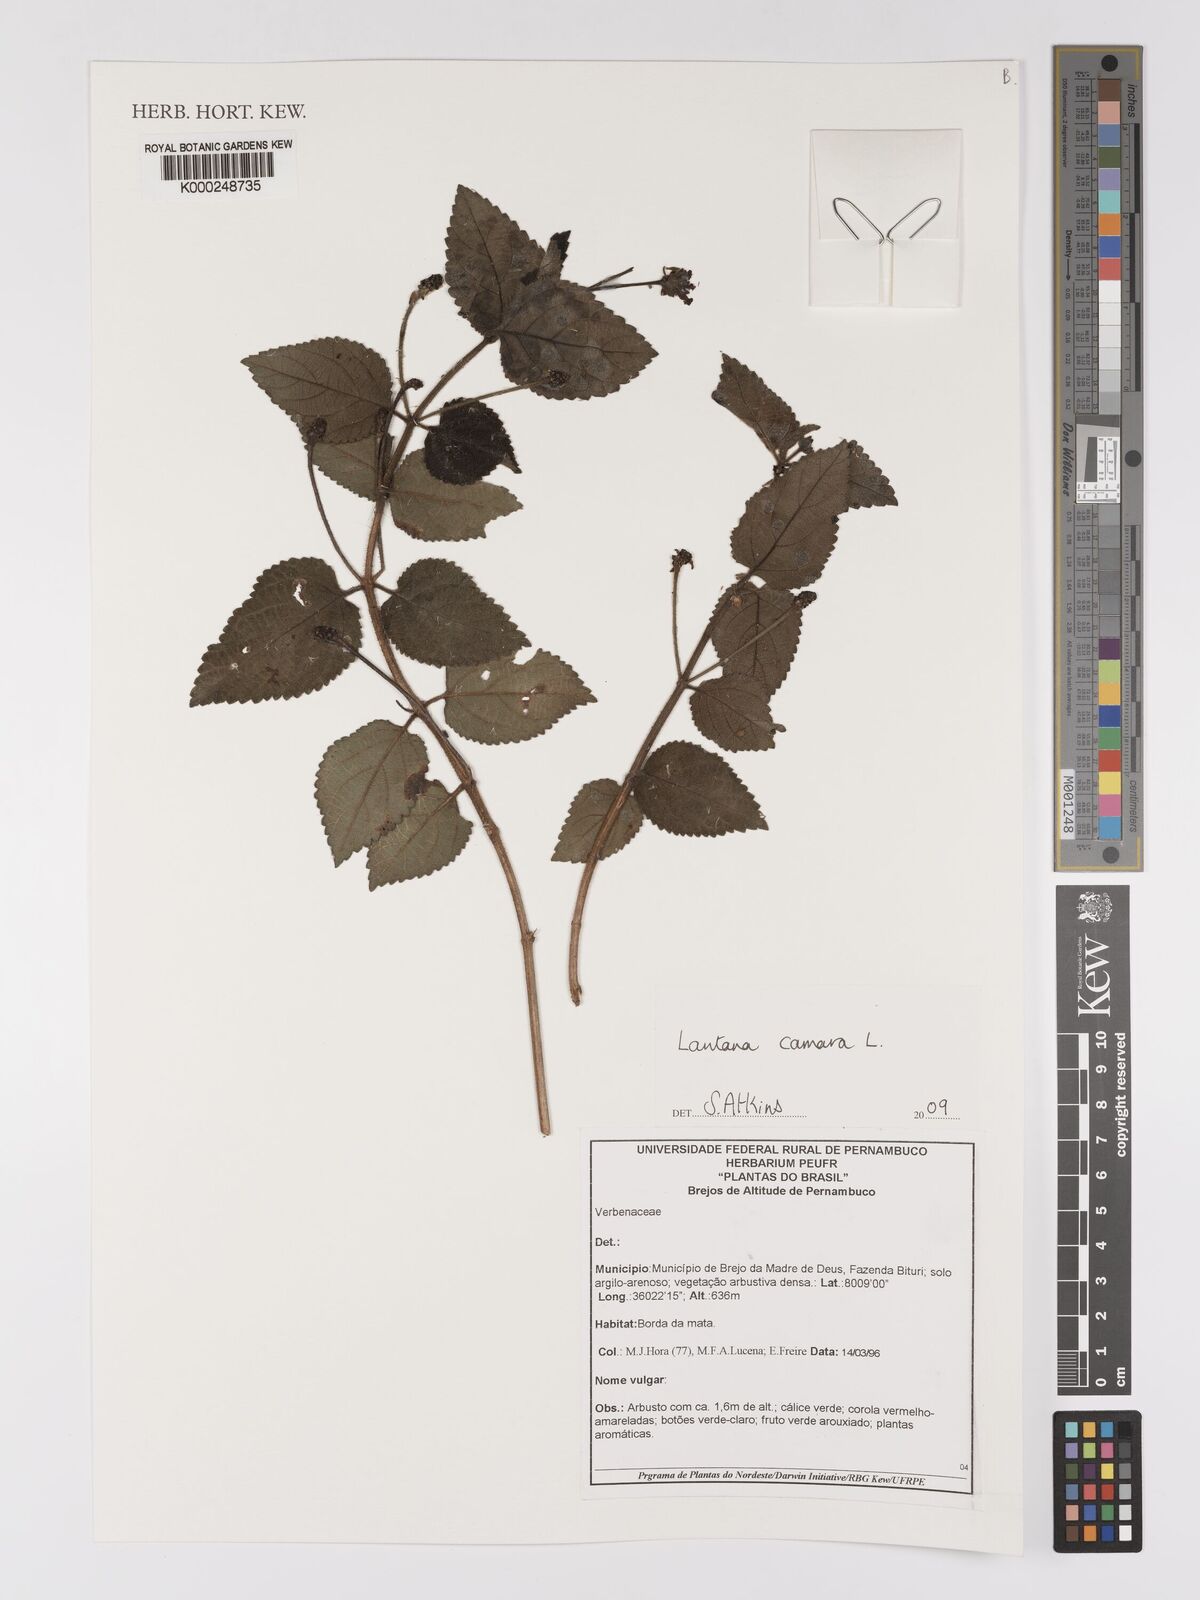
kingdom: Plantae
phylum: Tracheophyta
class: Magnoliopsida
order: Lamiales
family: Verbenaceae
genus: Lantana
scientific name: Lantana camara
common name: Lantana
